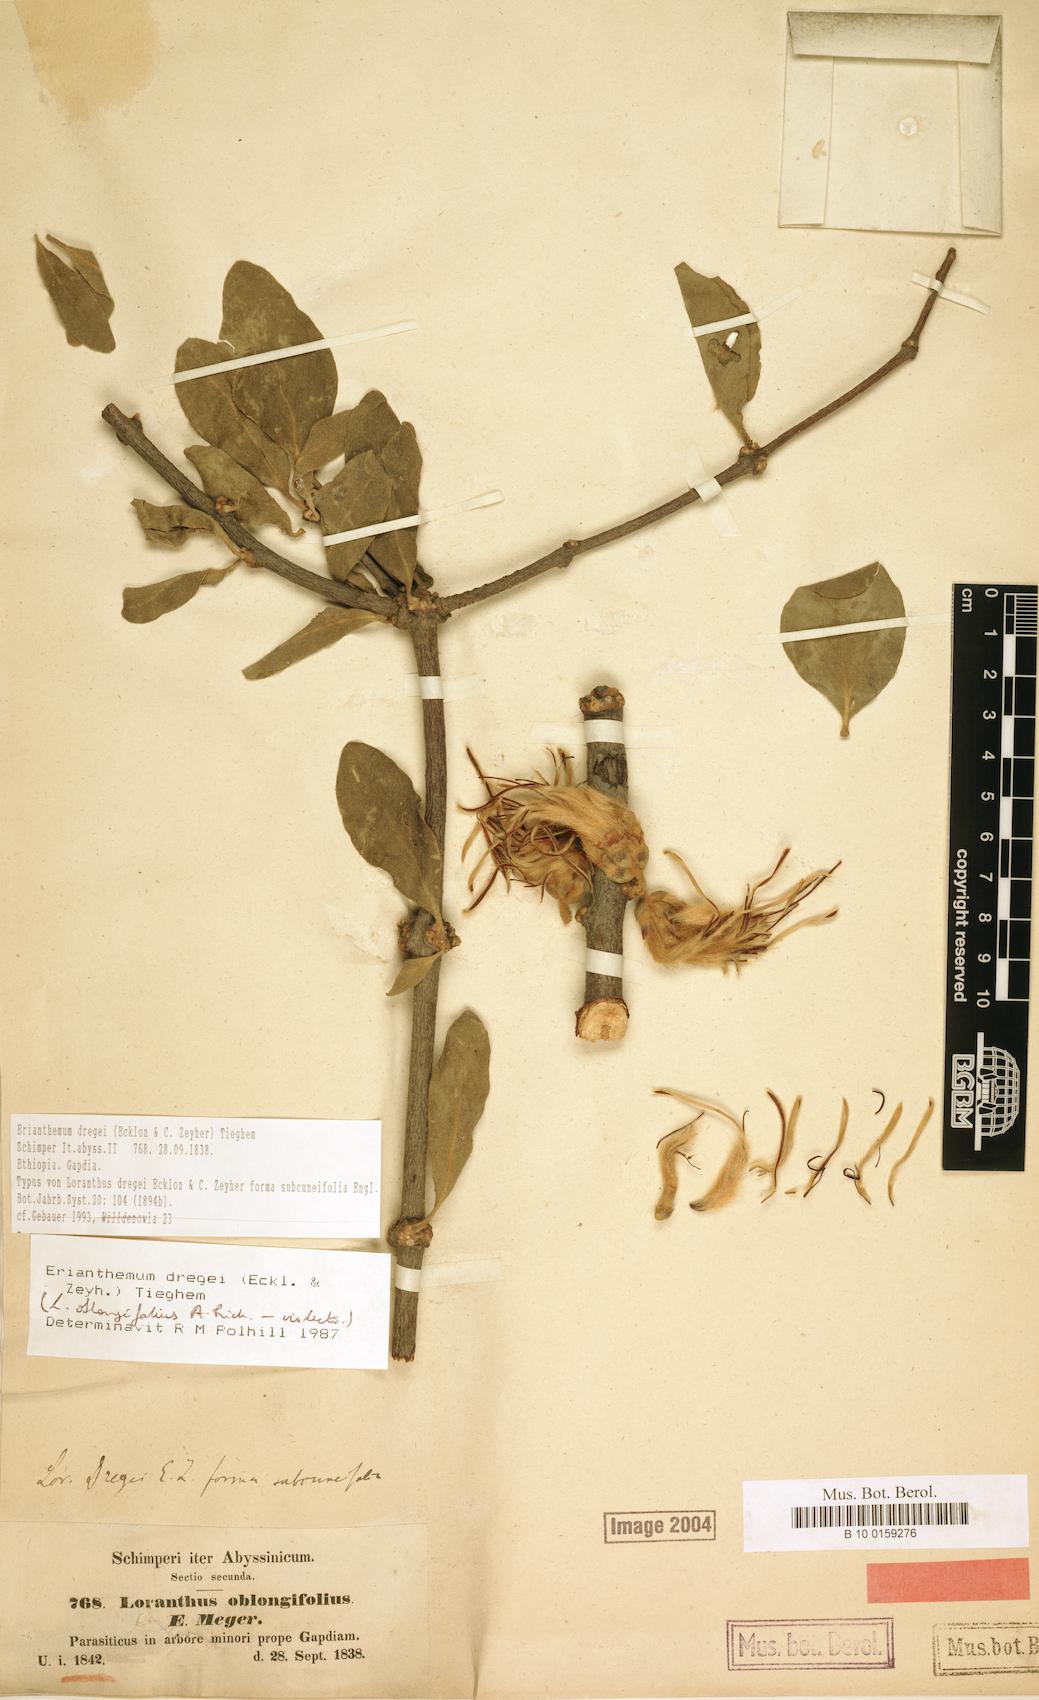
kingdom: Plantae
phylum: Tracheophyta
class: Magnoliopsida
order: Santalales
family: Loranthaceae
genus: Erianthemum
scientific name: Erianthemum dregei
